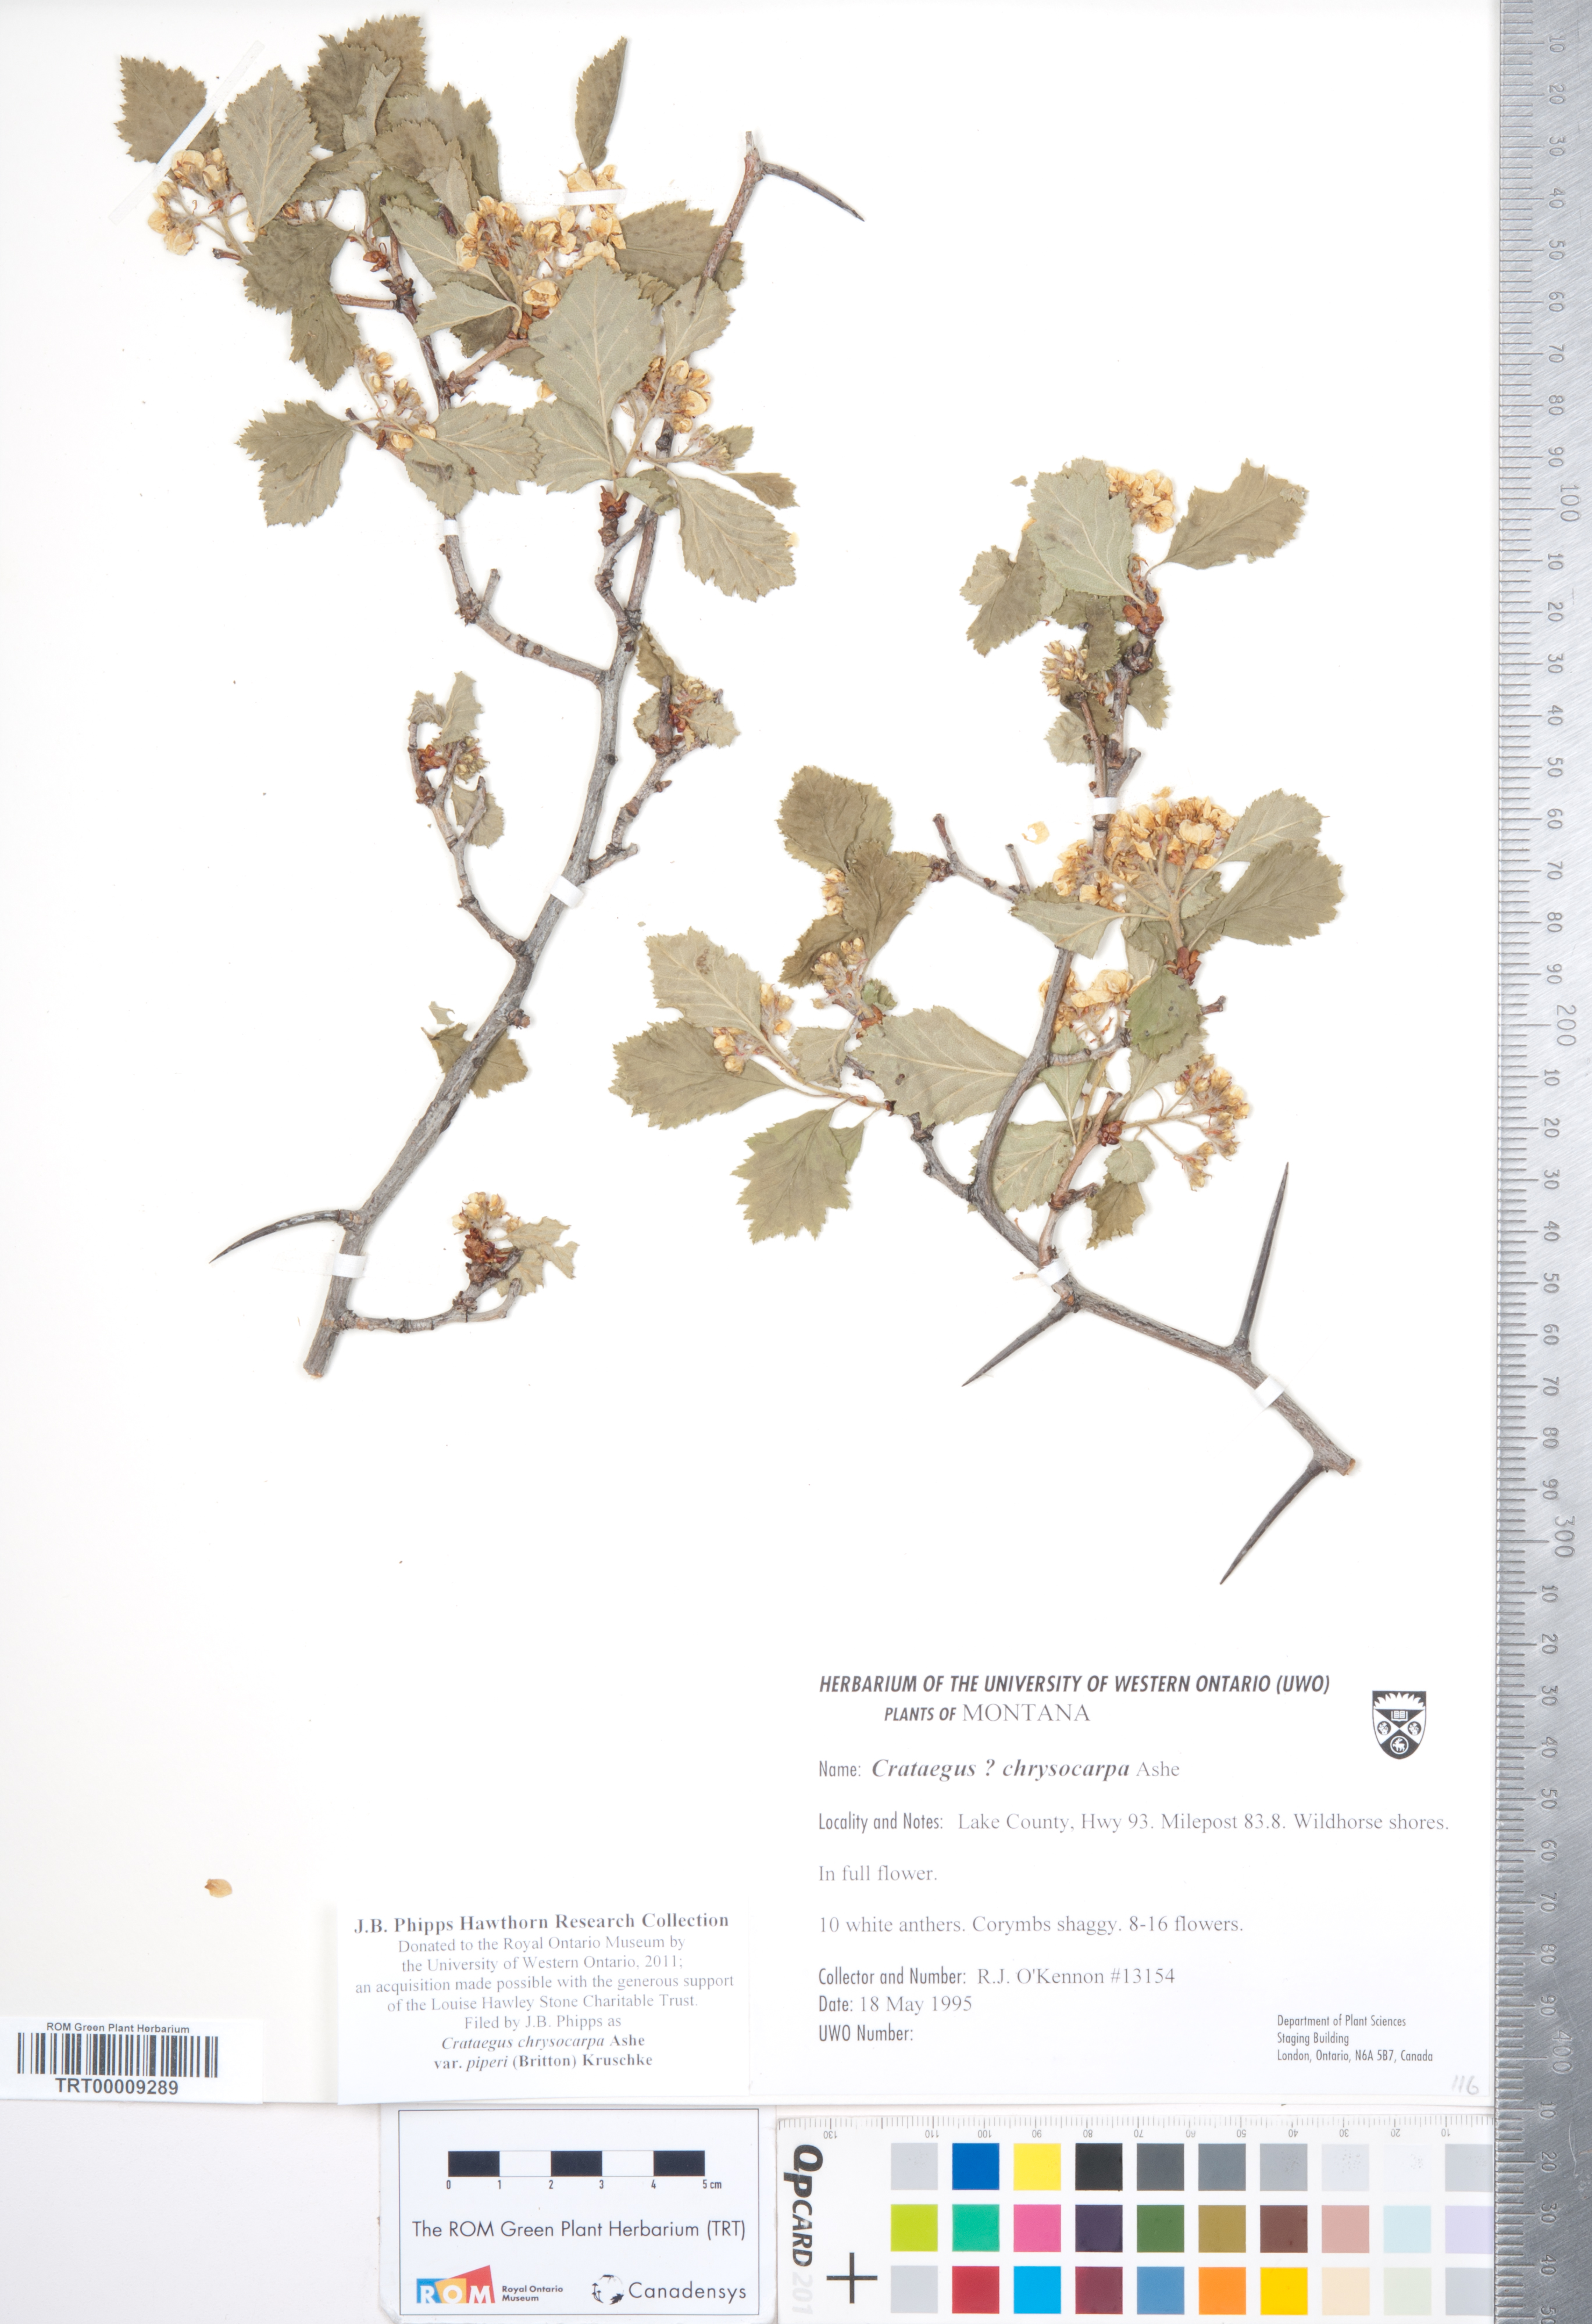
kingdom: Plantae
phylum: Tracheophyta
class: Magnoliopsida
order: Rosales
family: Rosaceae
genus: Crataegus
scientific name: Crataegus piperi
